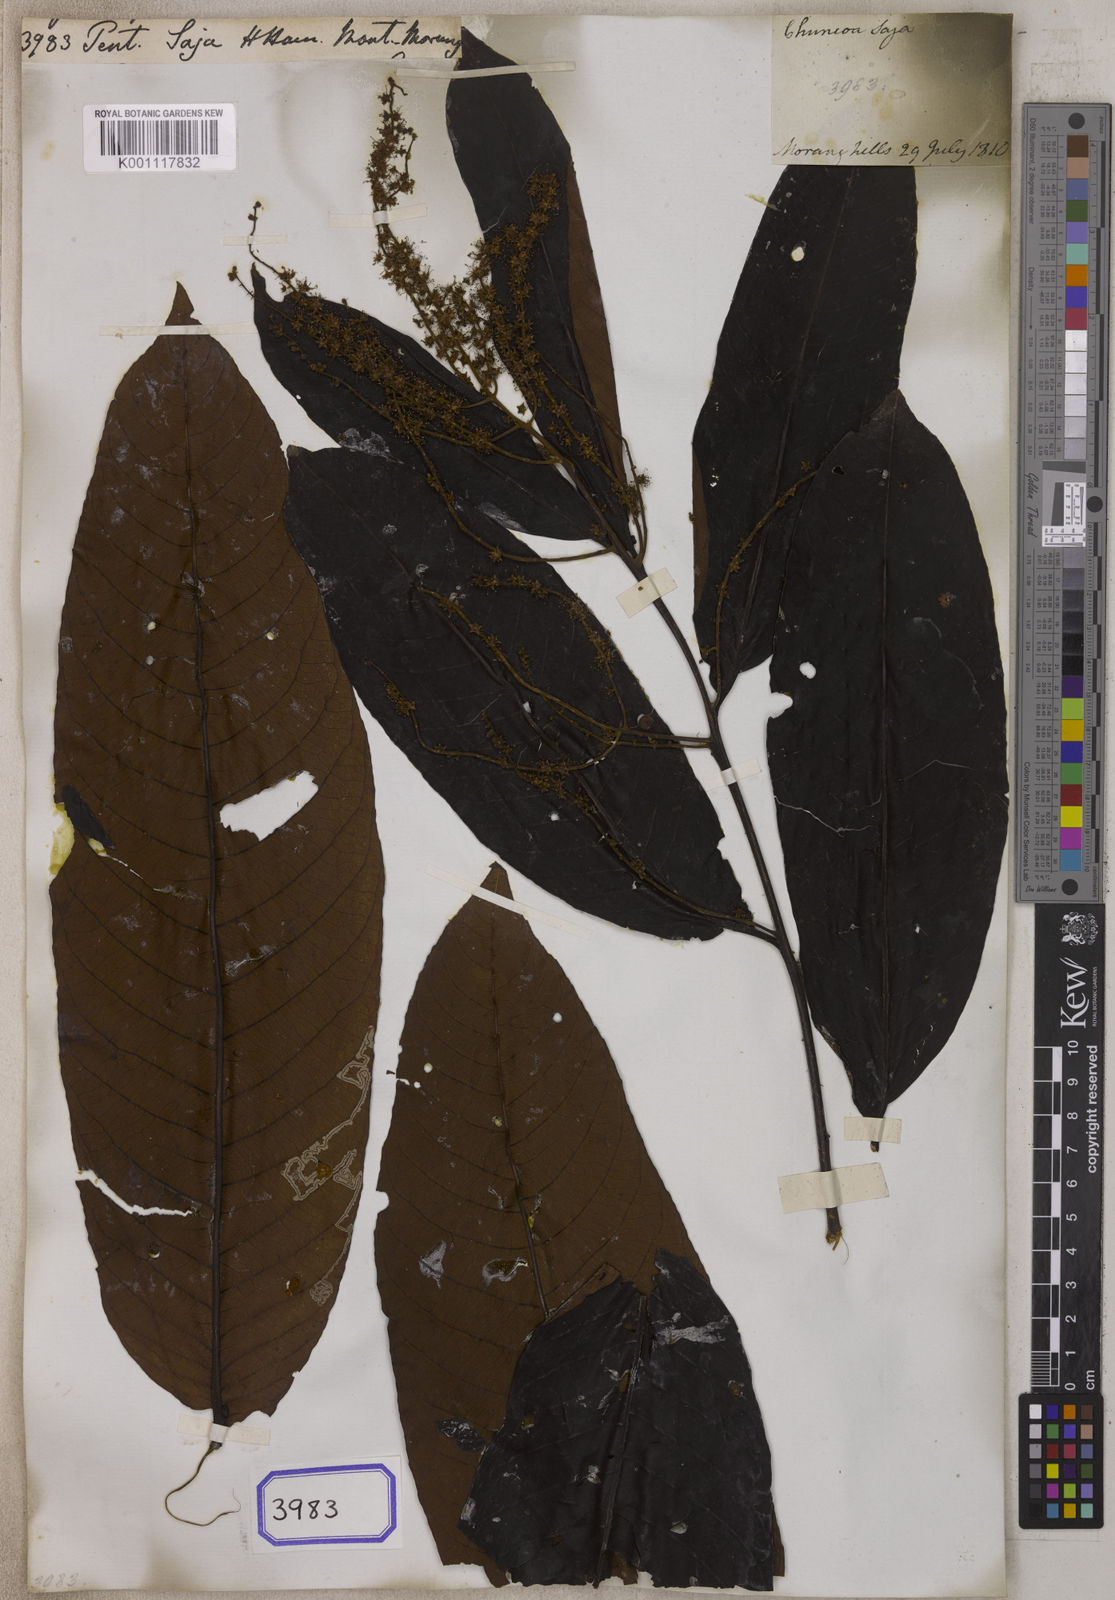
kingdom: Plantae
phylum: Tracheophyta
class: Magnoliopsida
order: Myrtales
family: Combretaceae
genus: Terminalia
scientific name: Terminalia myriocarpa
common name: Hollock
